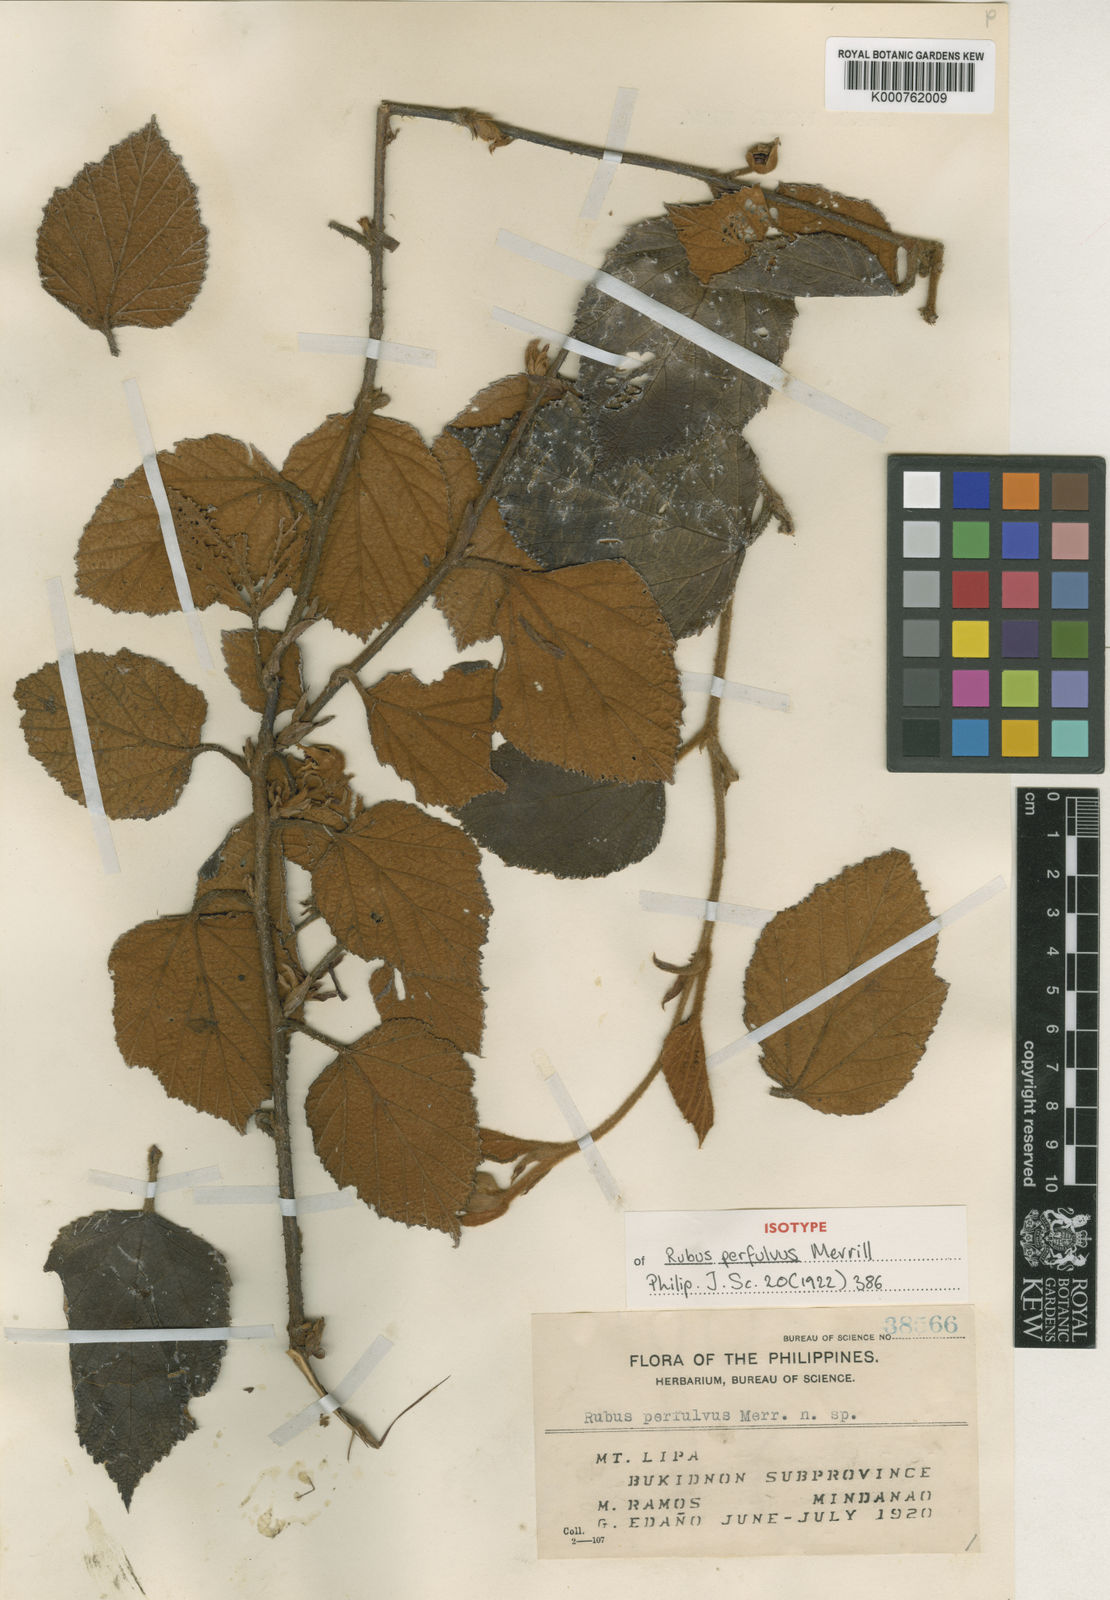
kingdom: Plantae
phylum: Tracheophyta
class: Magnoliopsida
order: Rosales
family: Rosaceae
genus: Rubus
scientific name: Rubus perfulvus
